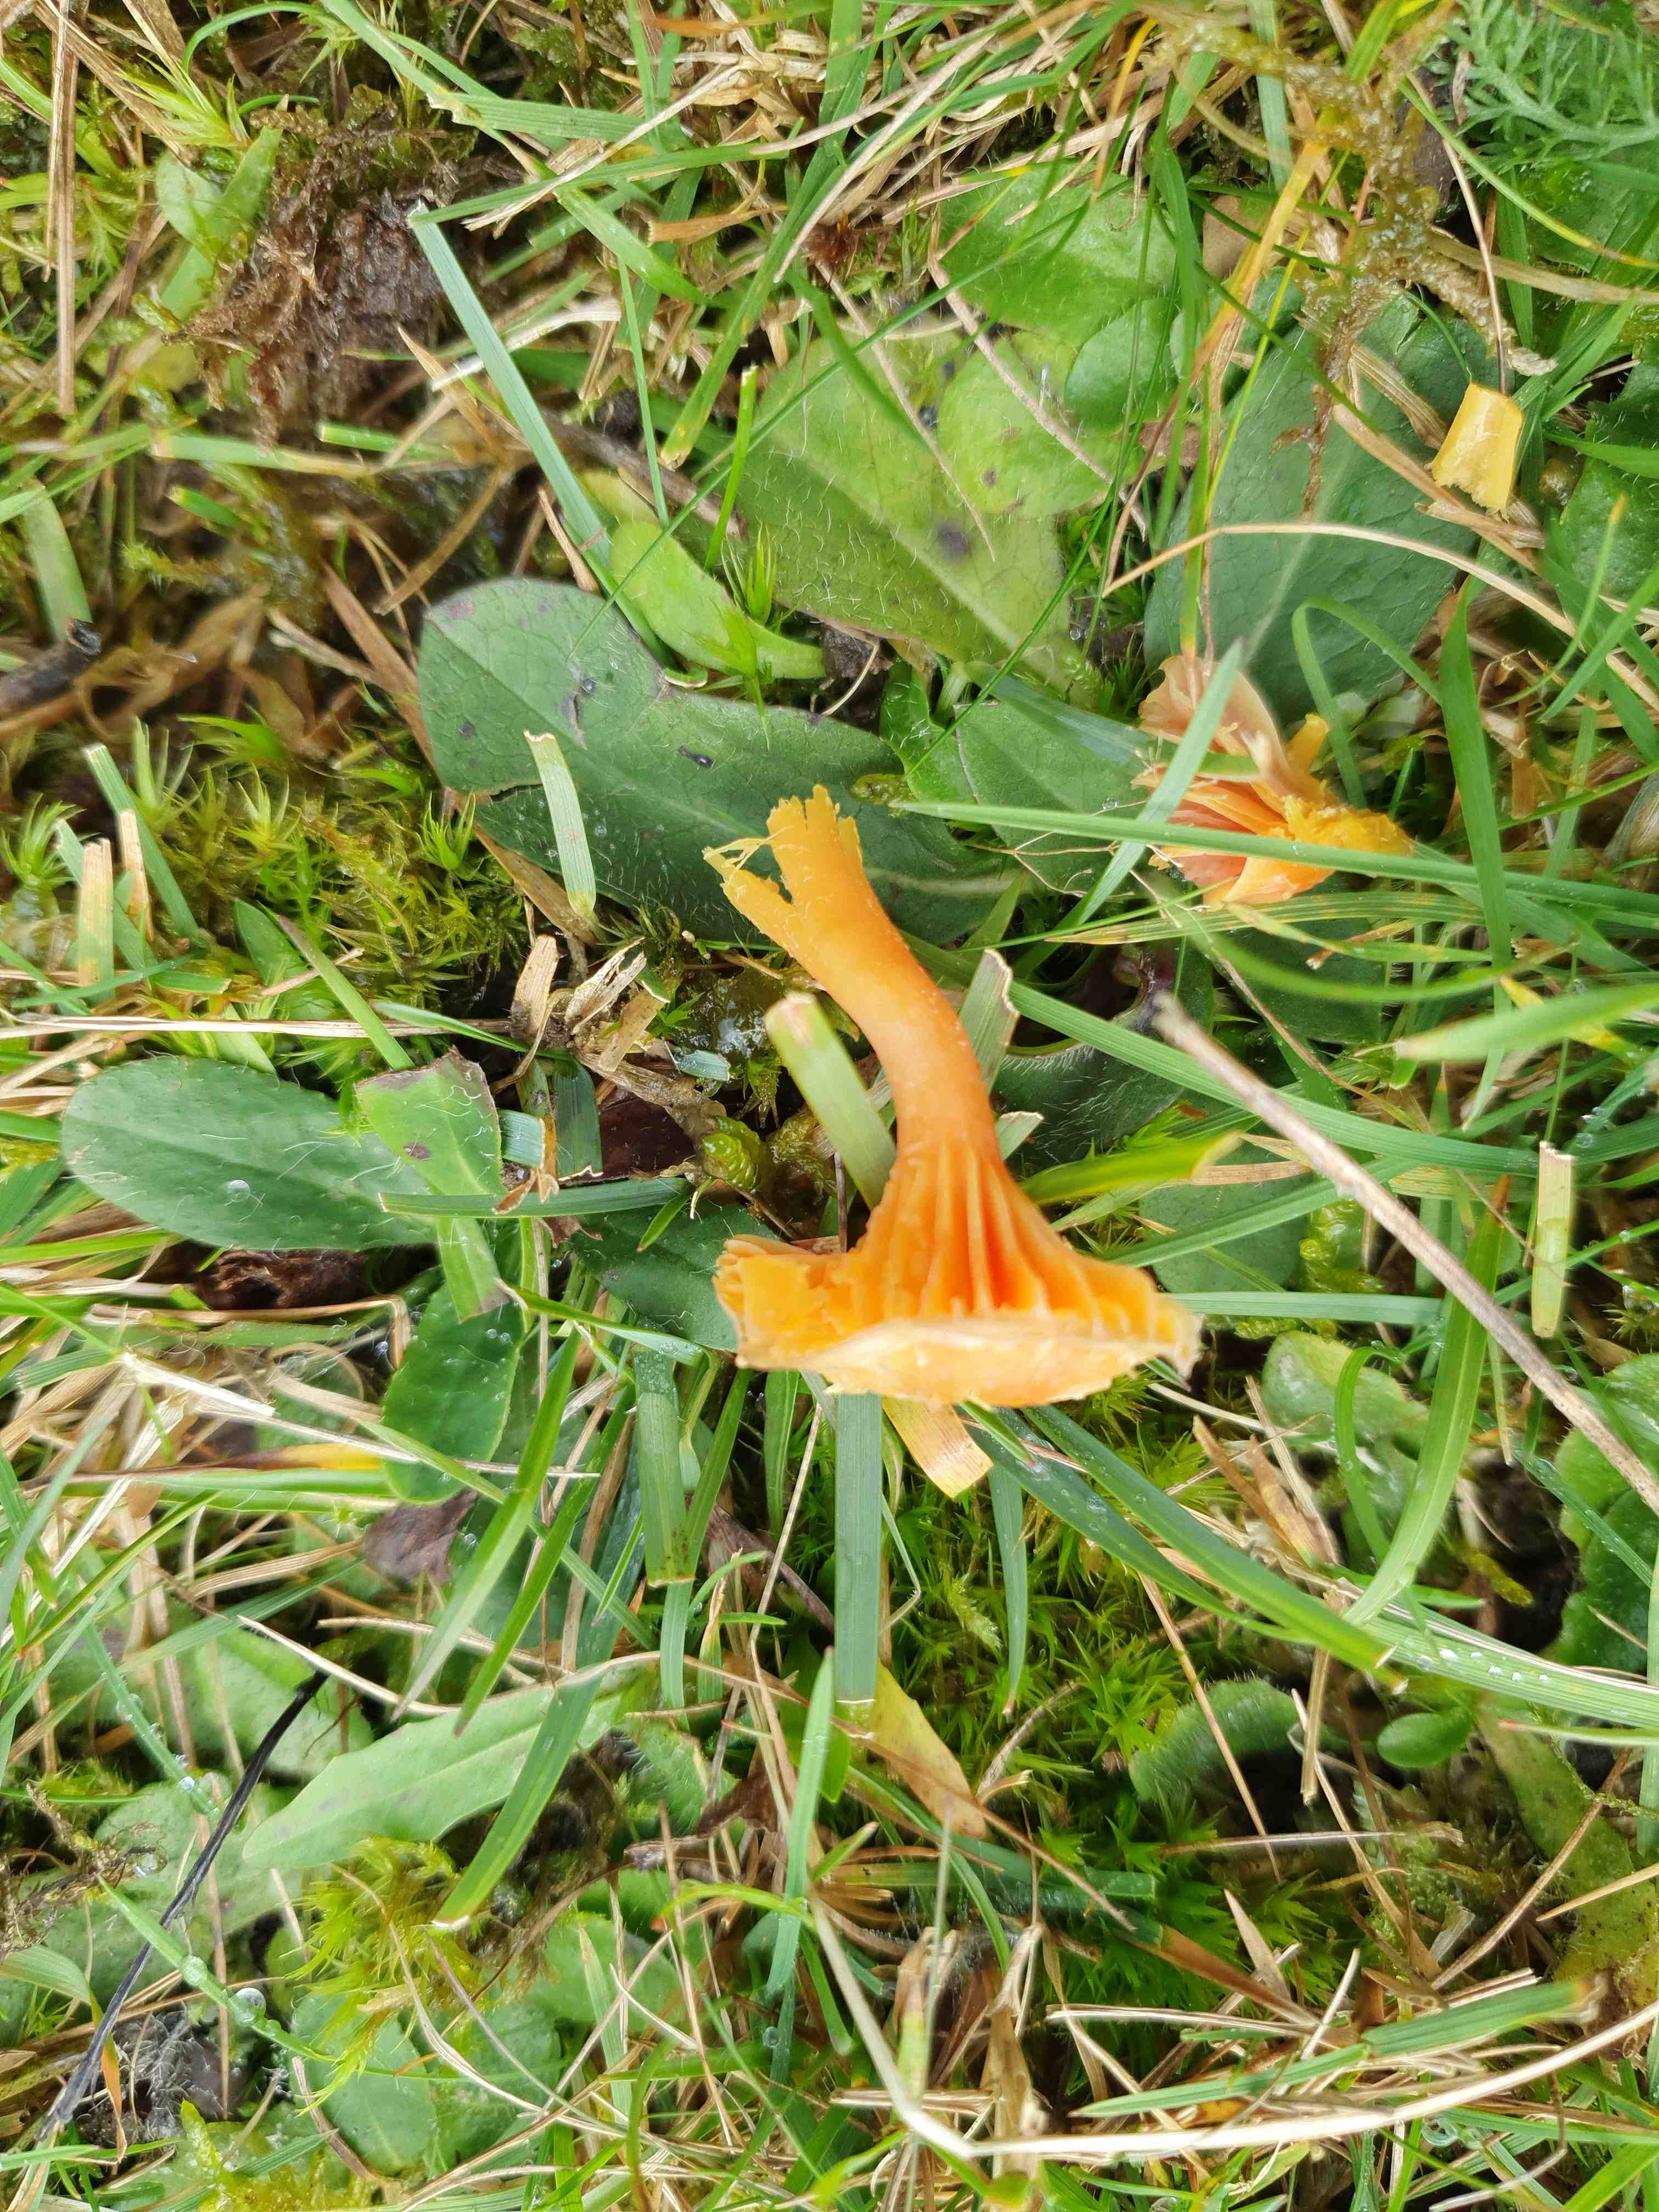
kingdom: Fungi
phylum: Basidiomycota
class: Agaricomycetes
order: Agaricales
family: Hygrophoraceae
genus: Hygrocybe
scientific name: Hygrocybe cantharellus
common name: kantarel-vokshat
